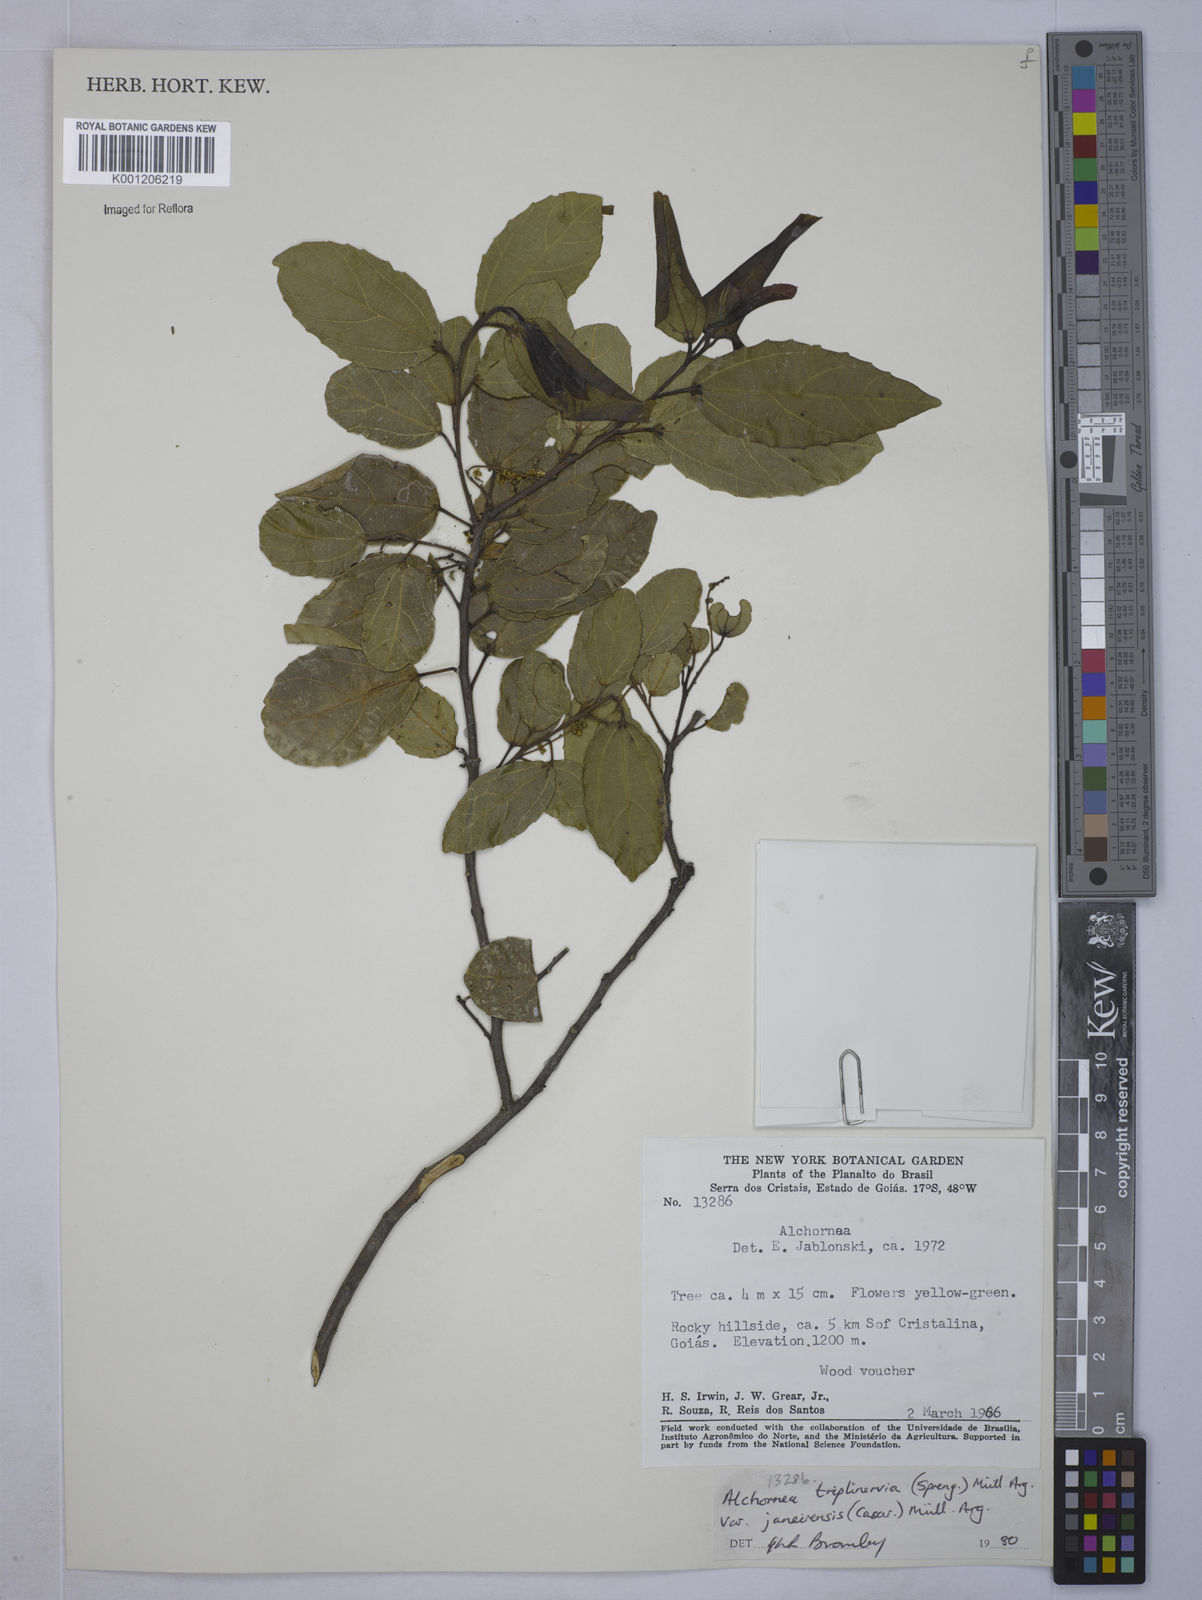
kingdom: Plantae
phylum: Tracheophyta
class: Magnoliopsida
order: Malpighiales
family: Euphorbiaceae
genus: Alchornea
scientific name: Alchornea
